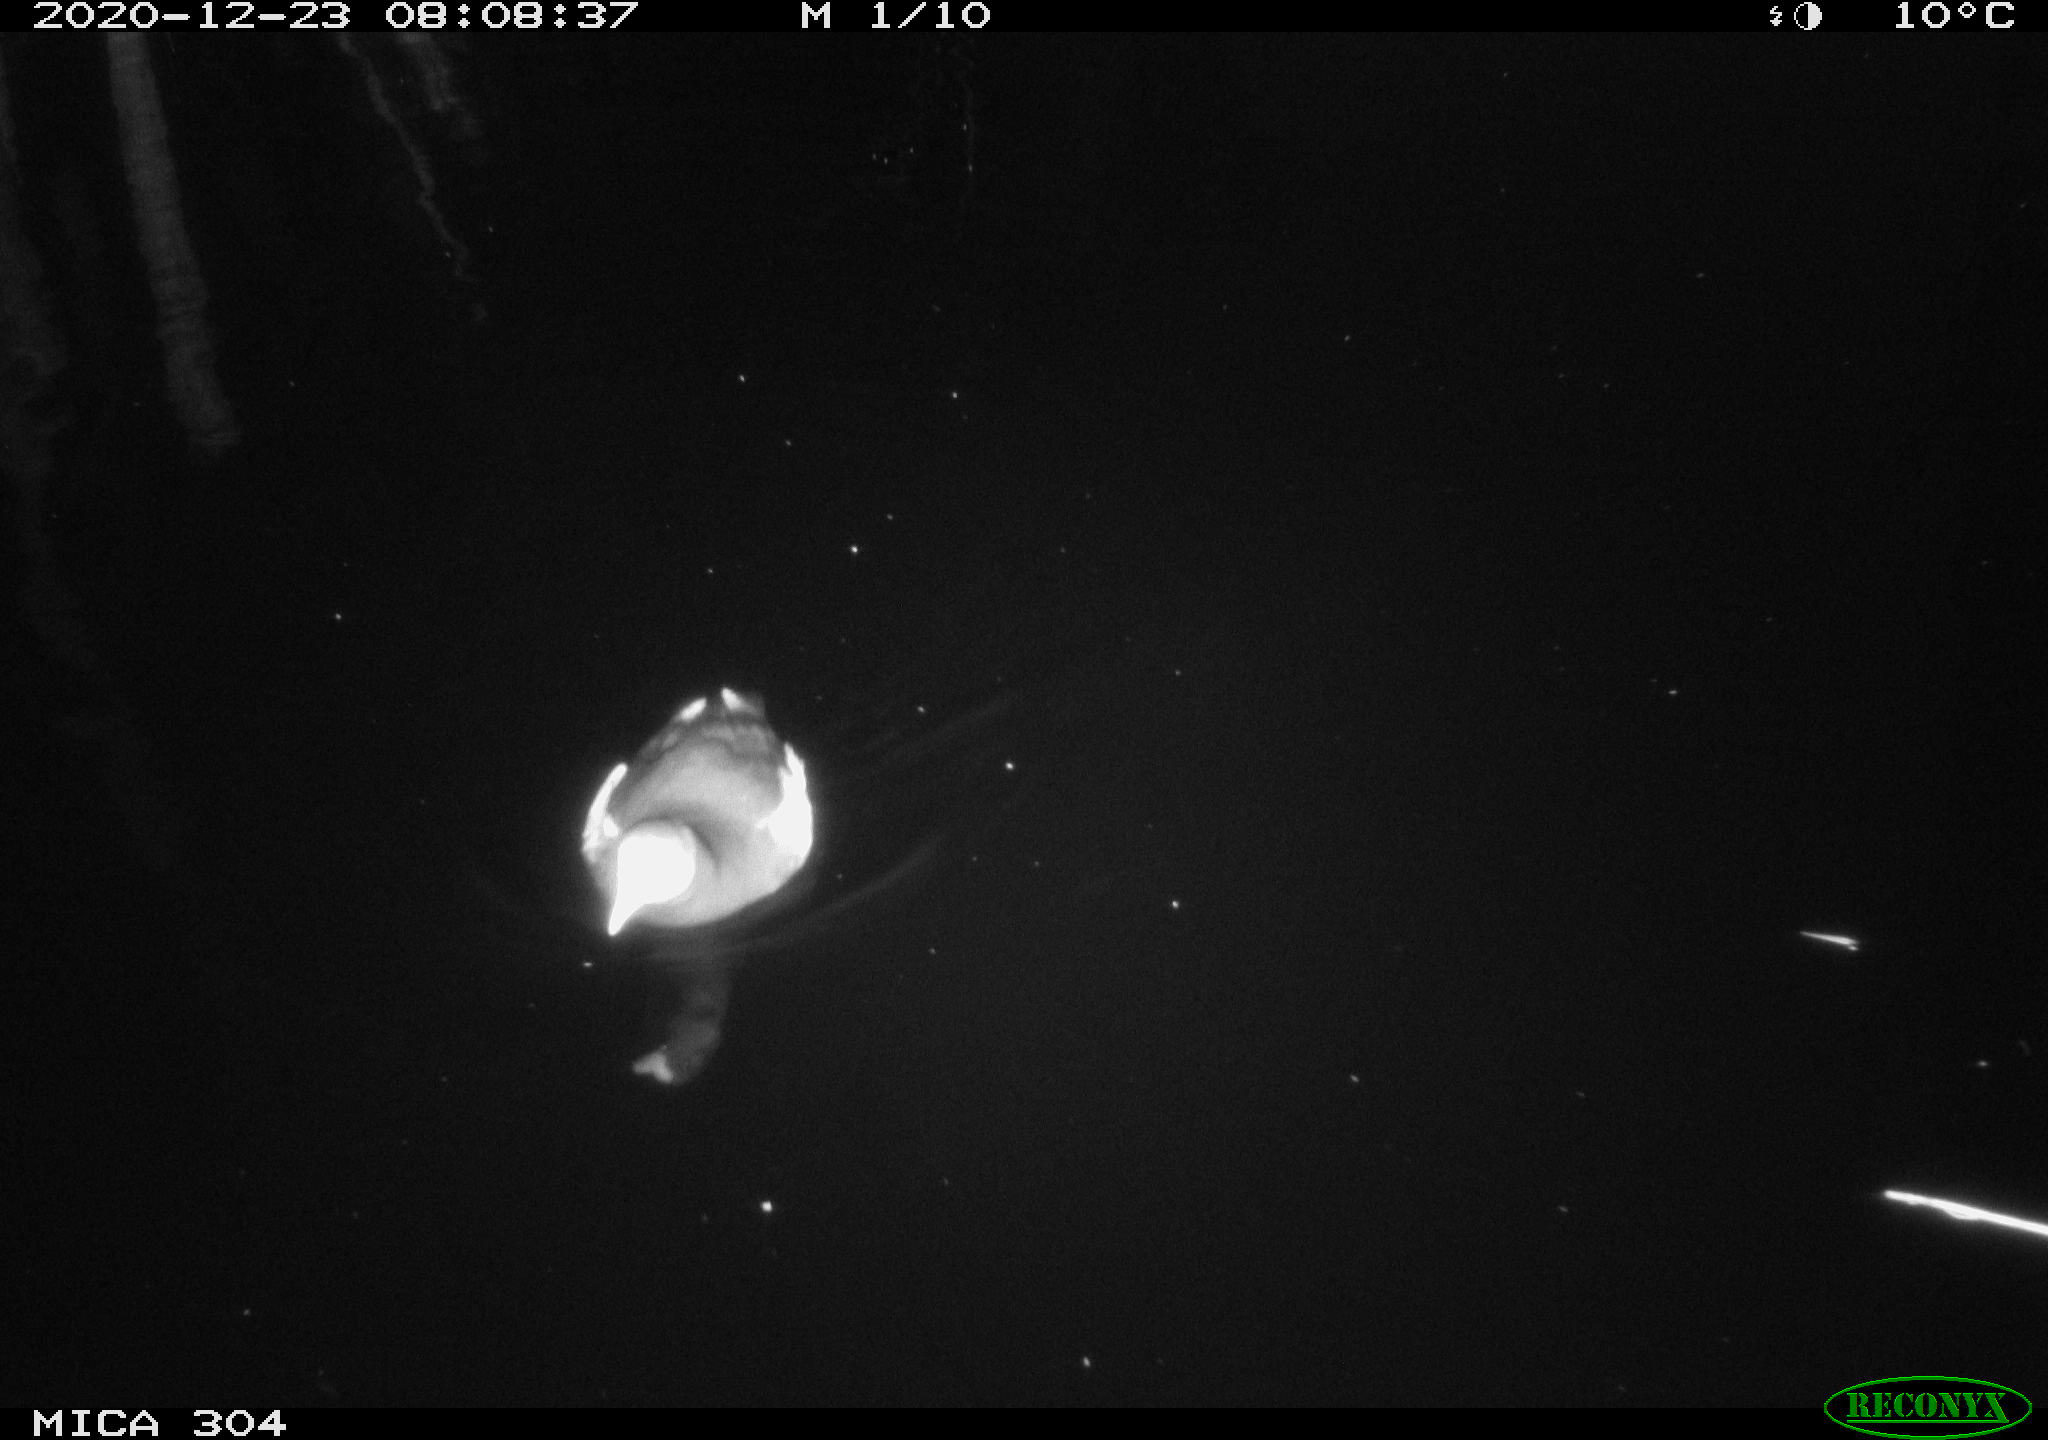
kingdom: Animalia
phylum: Chordata
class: Aves
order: Gruiformes
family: Rallidae
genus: Gallinula
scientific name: Gallinula chloropus
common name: Common moorhen
